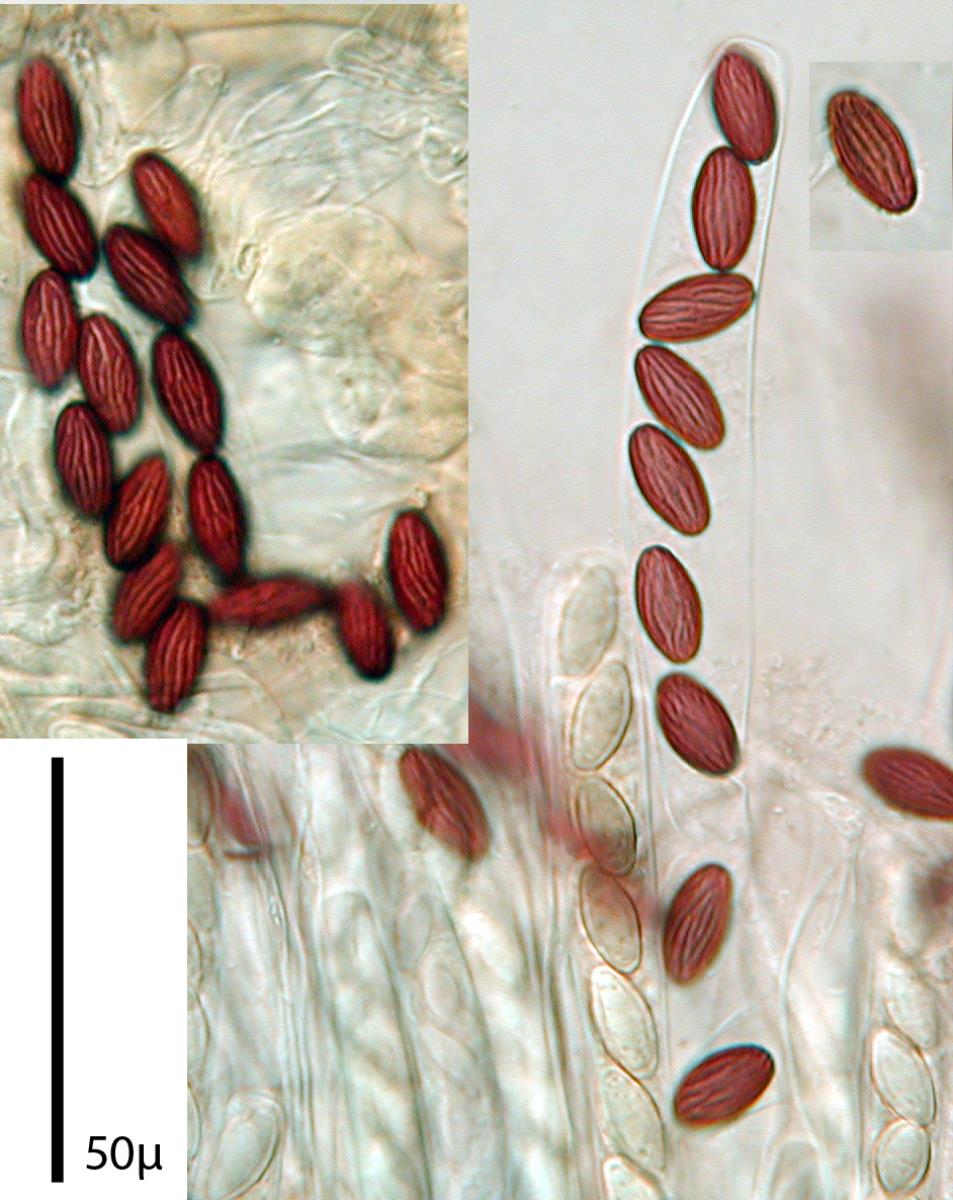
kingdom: Fungi
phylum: Ascomycota
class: Pezizomycetes
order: Pezizales
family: Ascobolaceae
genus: Ascobolus
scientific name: Ascobolus
